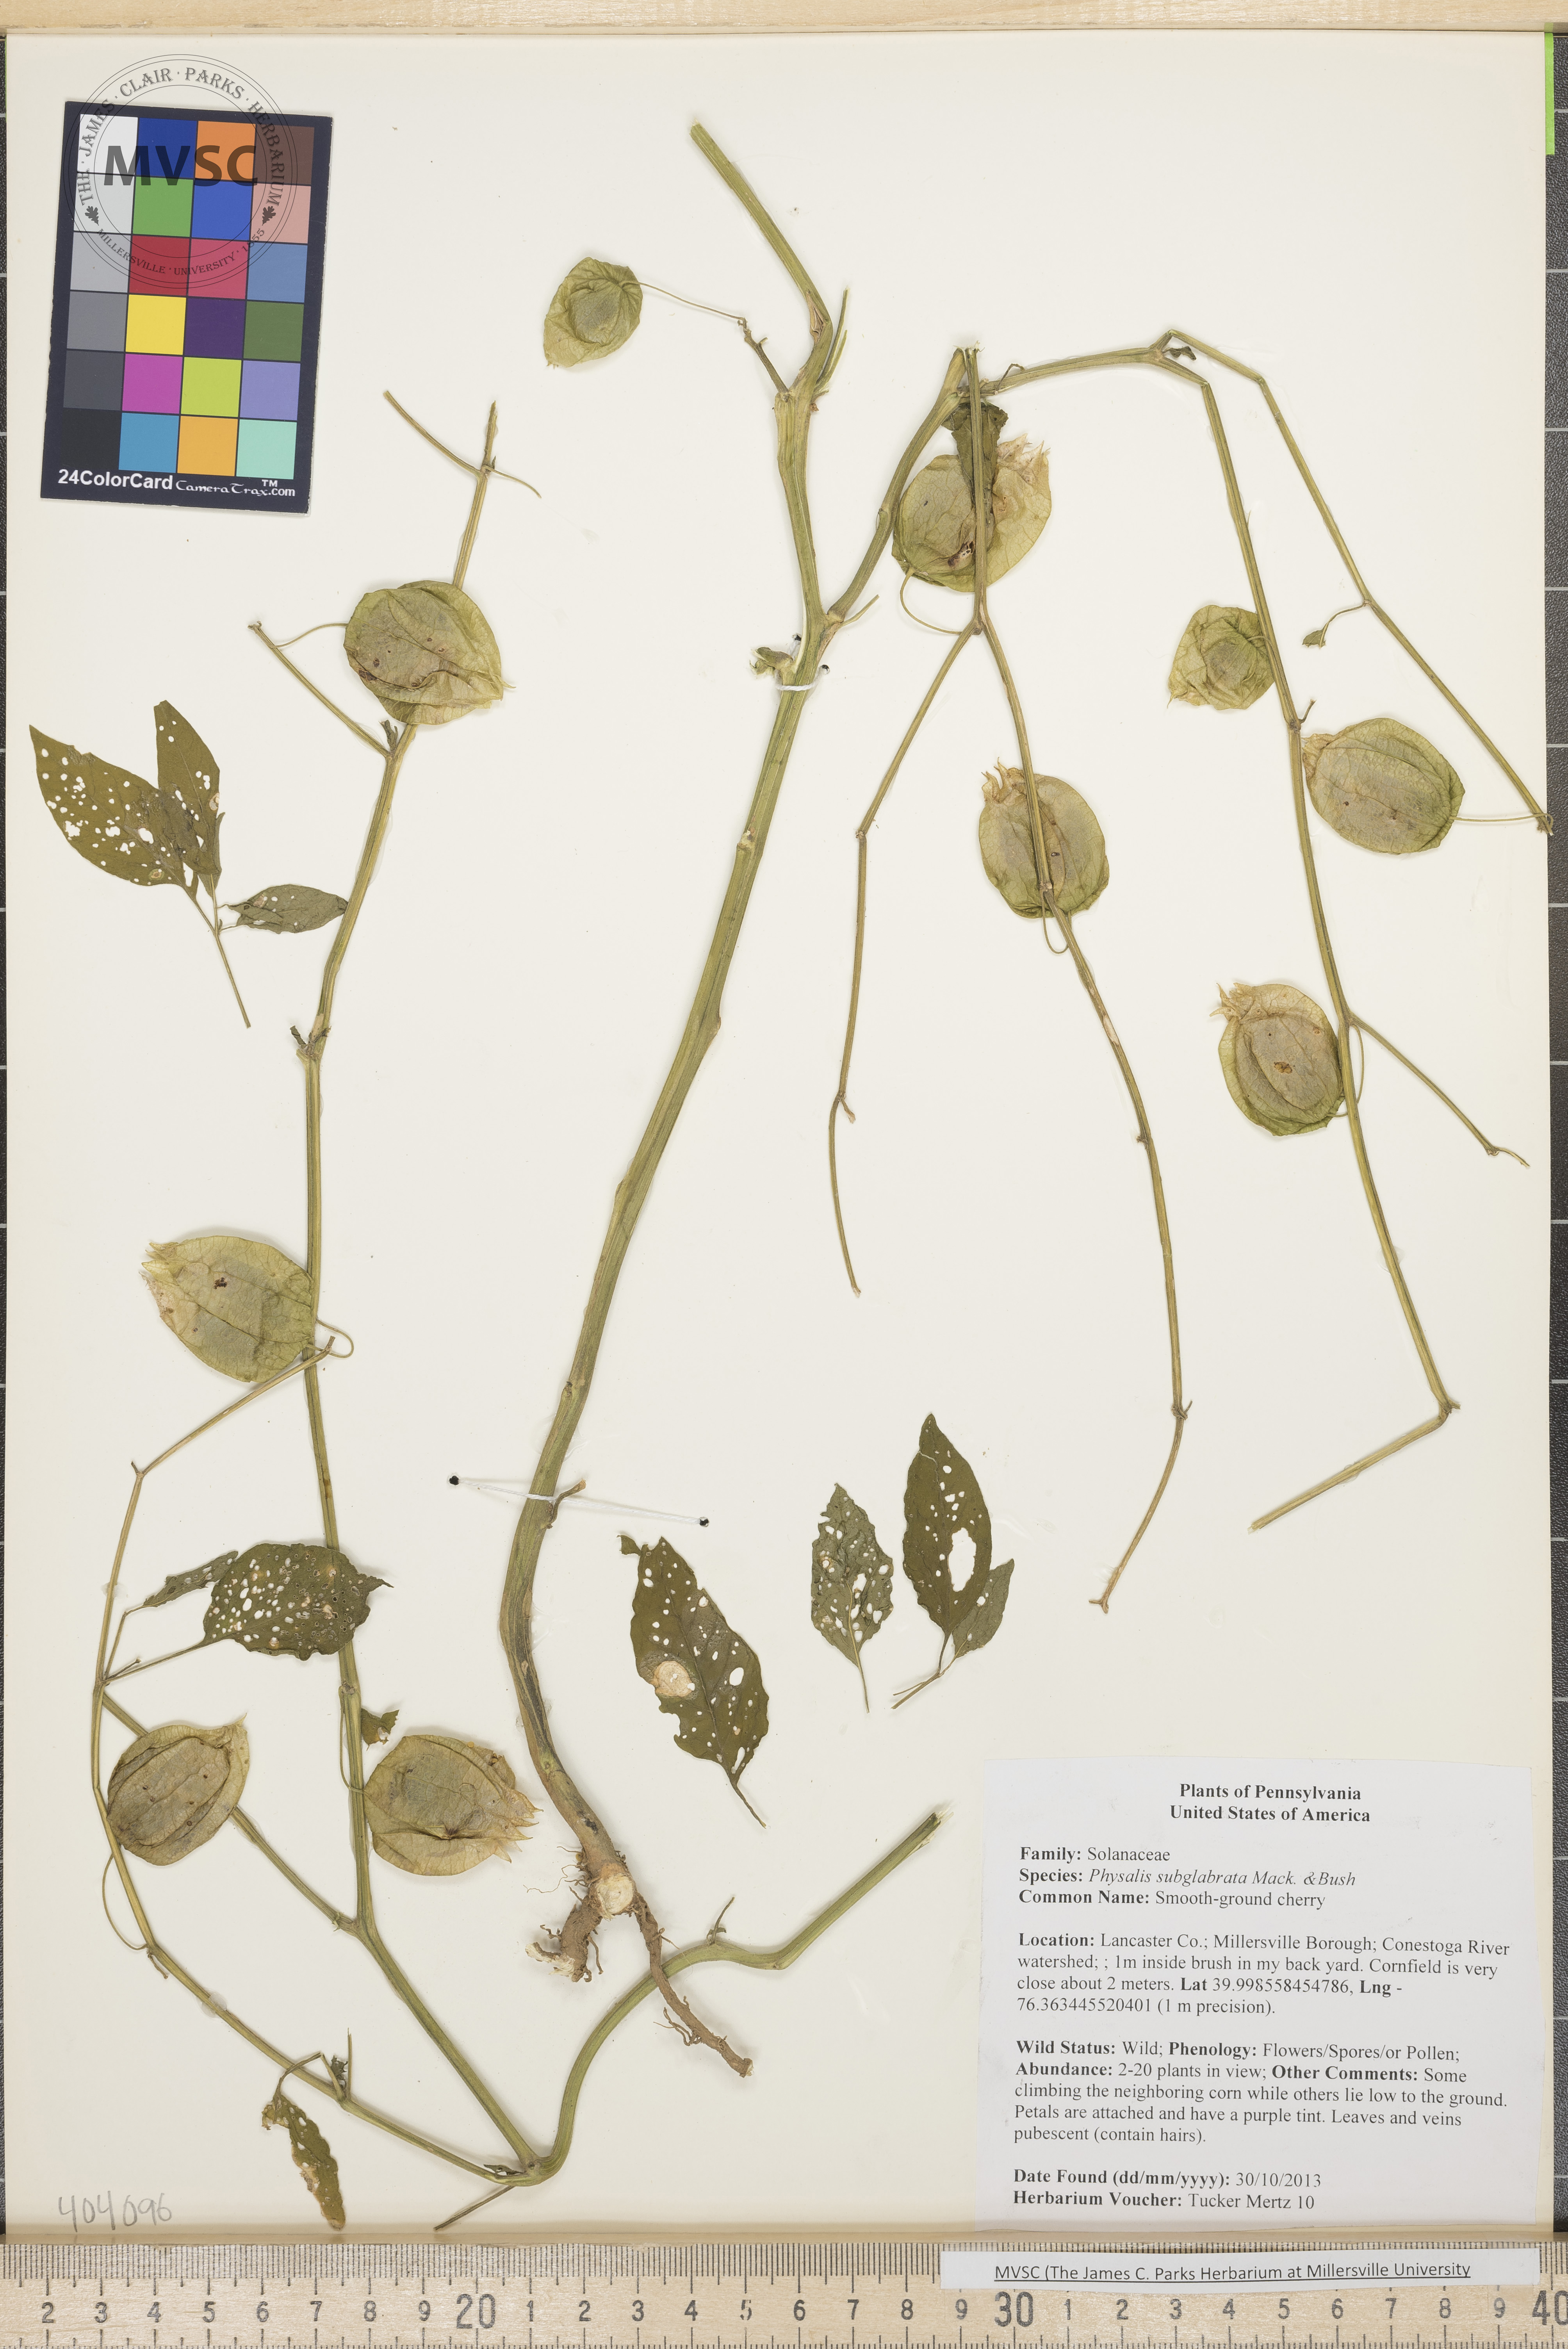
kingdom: Plantae
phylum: Tracheophyta
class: Magnoliopsida
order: Solanales
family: Solanaceae
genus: Physalis
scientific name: Physalis longifolia
